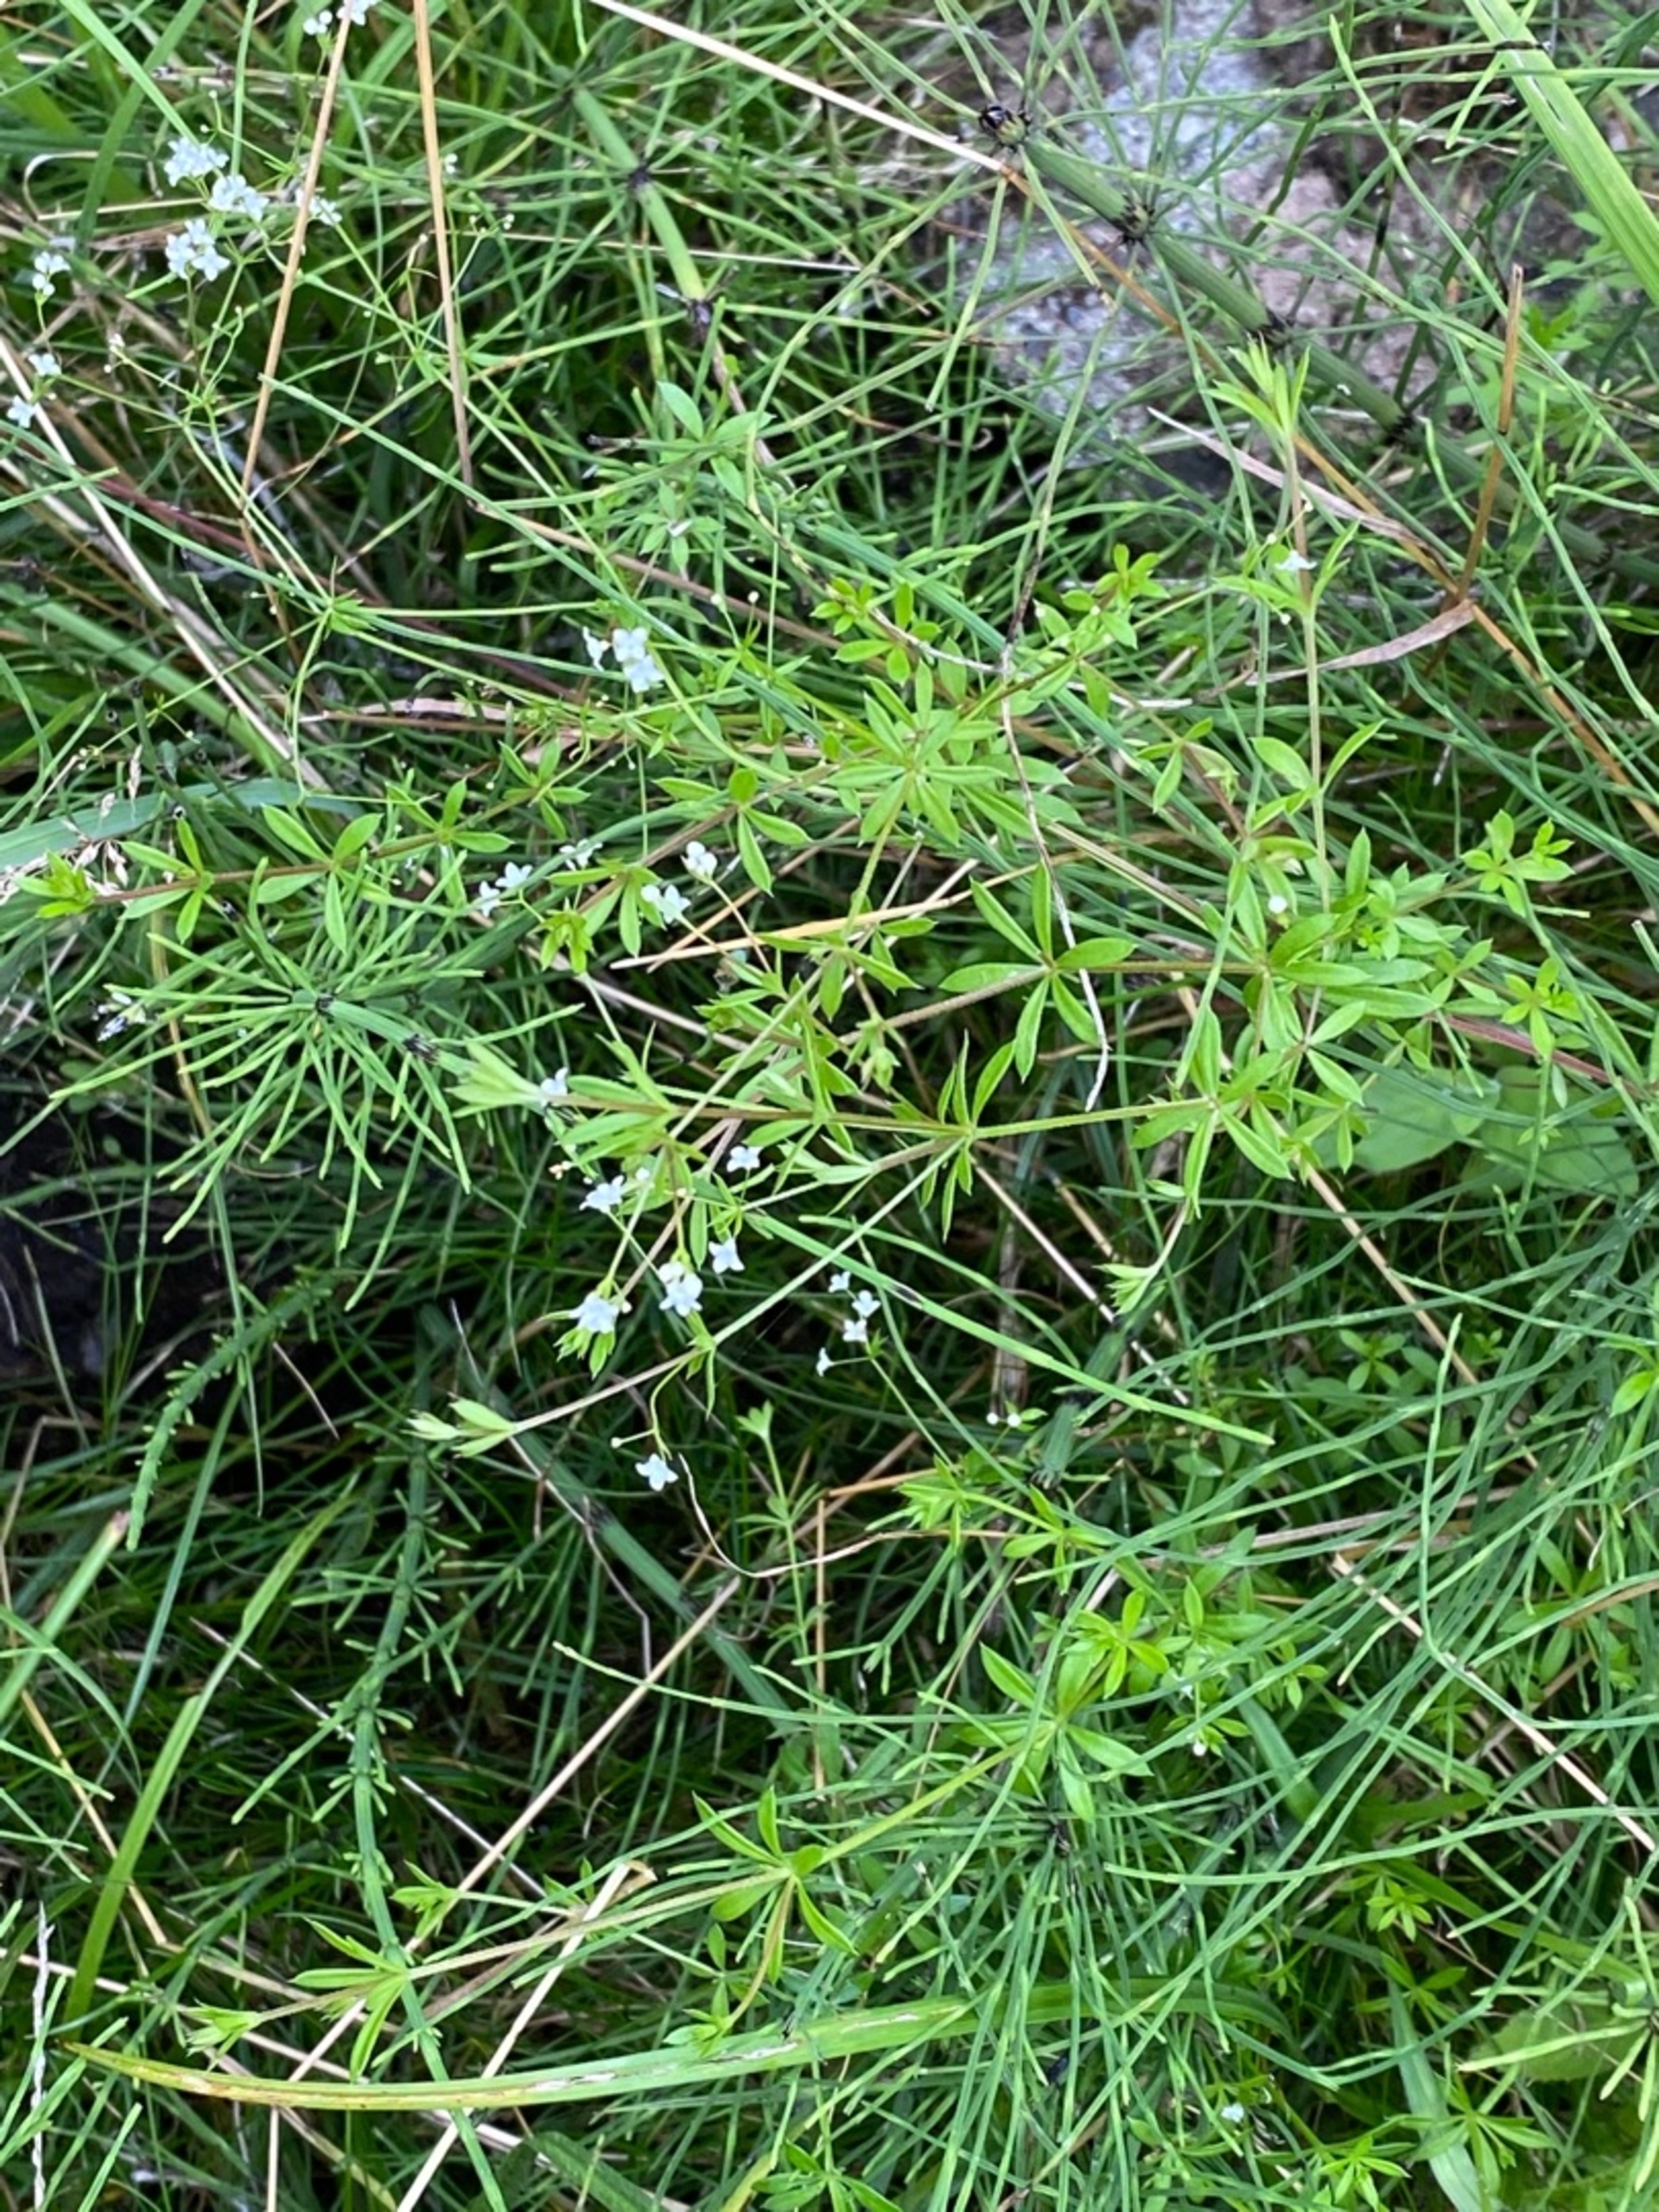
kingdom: Plantae
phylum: Tracheophyta
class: Magnoliopsida
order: Gentianales
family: Rubiaceae
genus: Galium
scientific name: Galium uliginosum
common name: Sump-snerre
